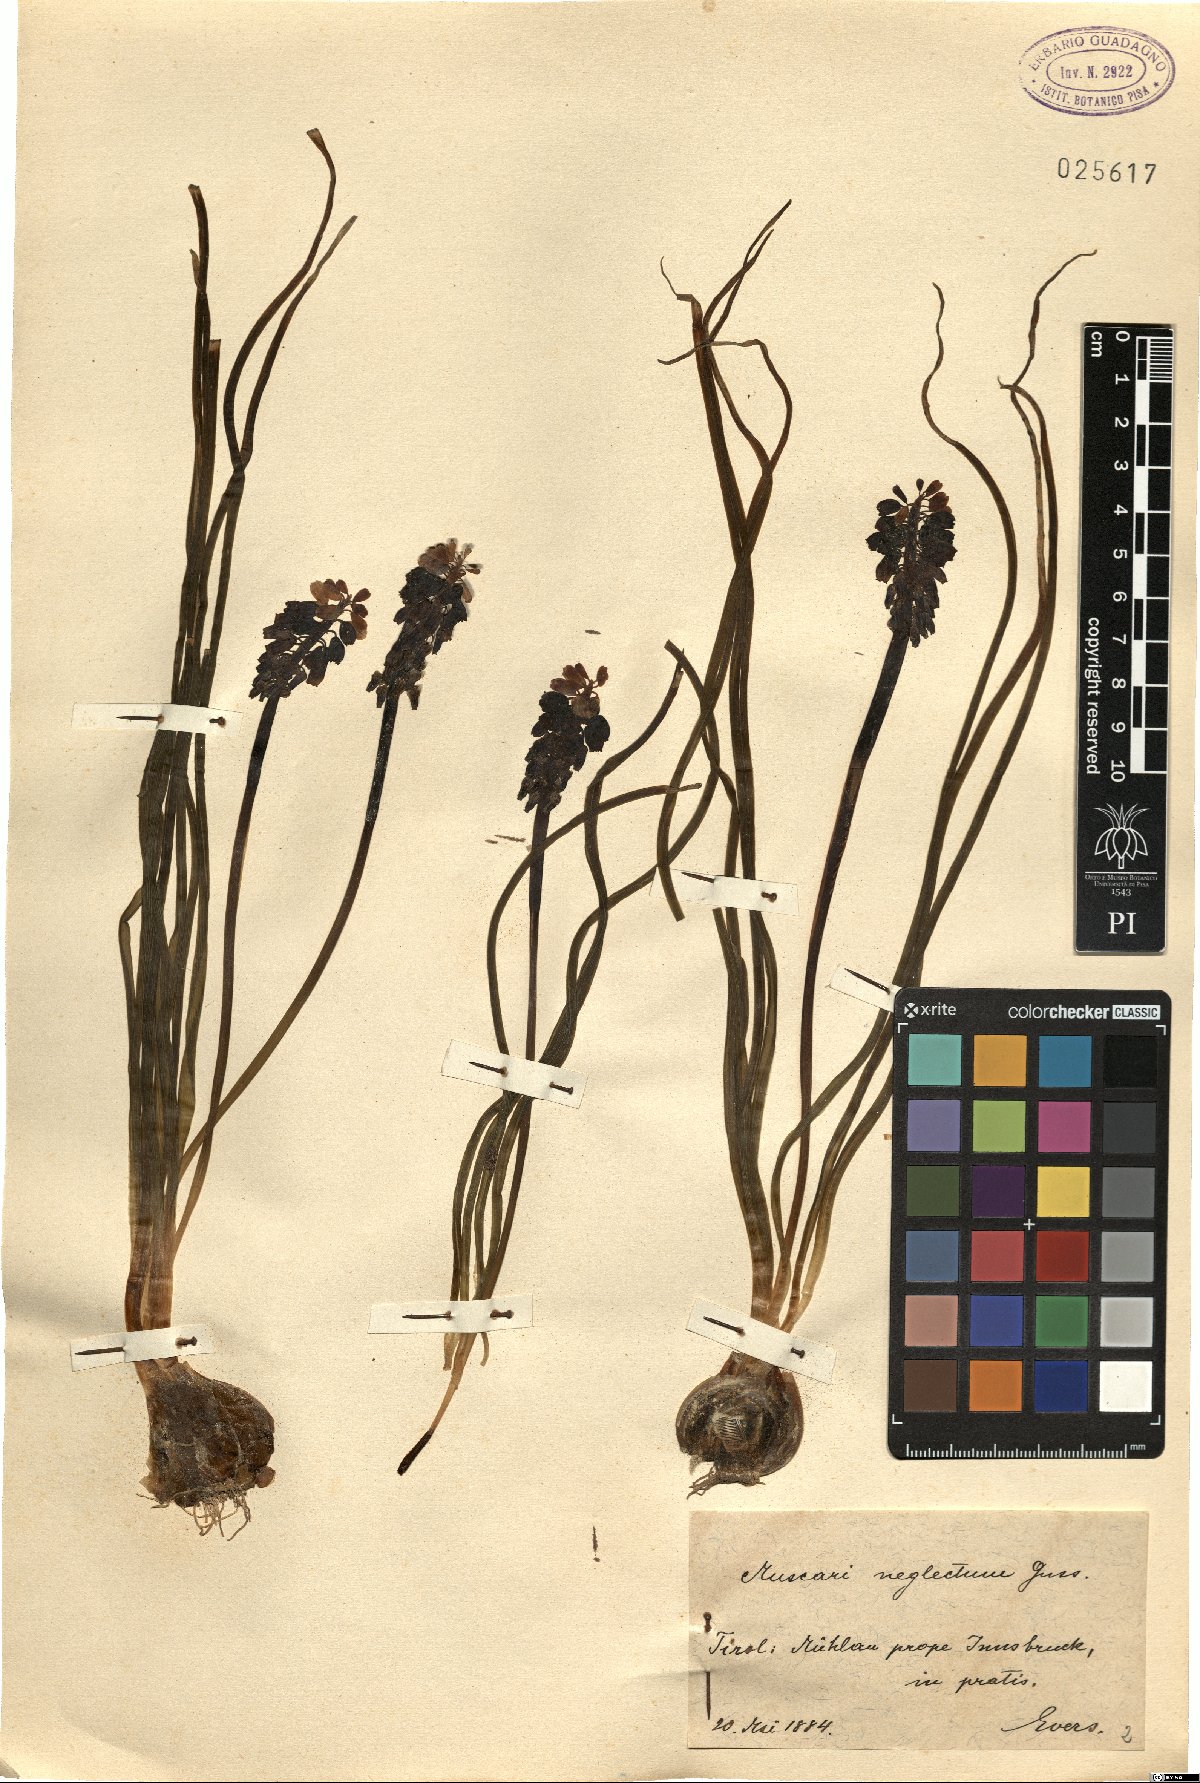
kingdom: Plantae
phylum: Tracheophyta
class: Liliopsida
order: Asparagales
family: Asparagaceae
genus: Muscari
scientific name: Muscari neglectum
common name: Grape-hyacinth
